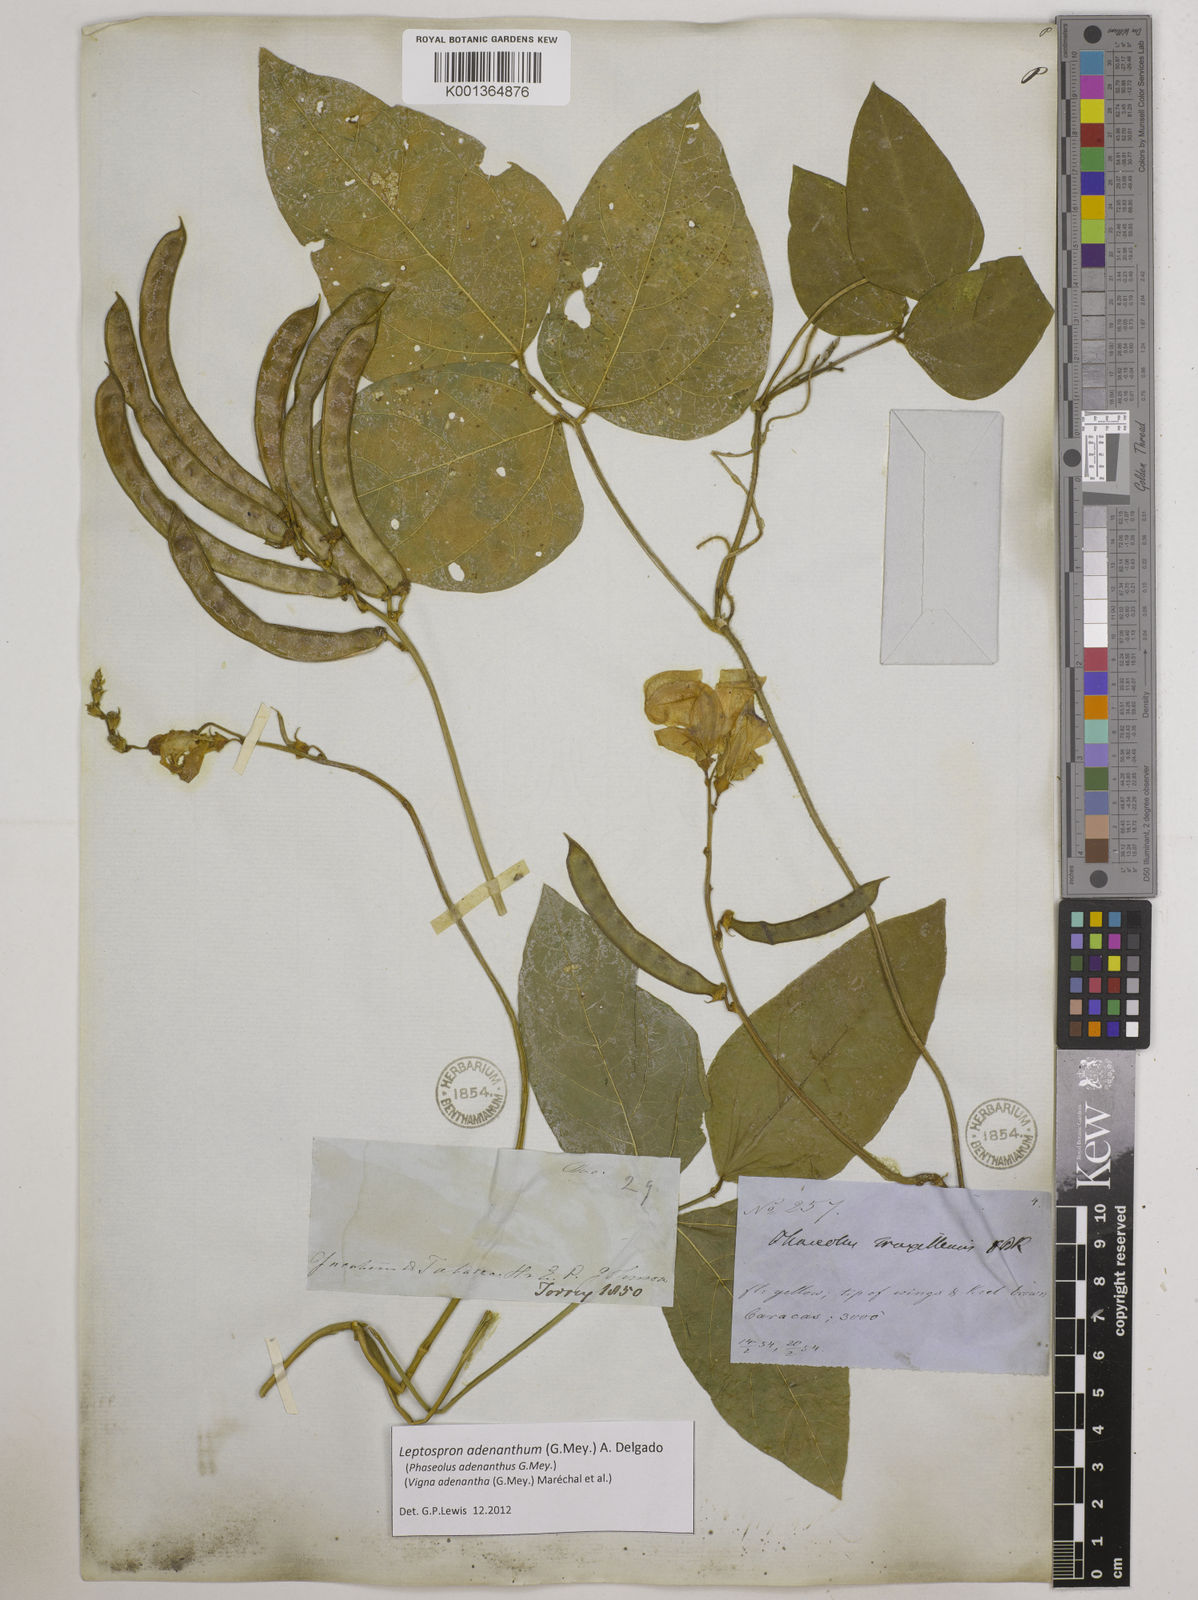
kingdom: Plantae
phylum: Tracheophyta
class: Magnoliopsida
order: Fabales
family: Fabaceae
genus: Leptospron
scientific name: Leptospron adenanthum
